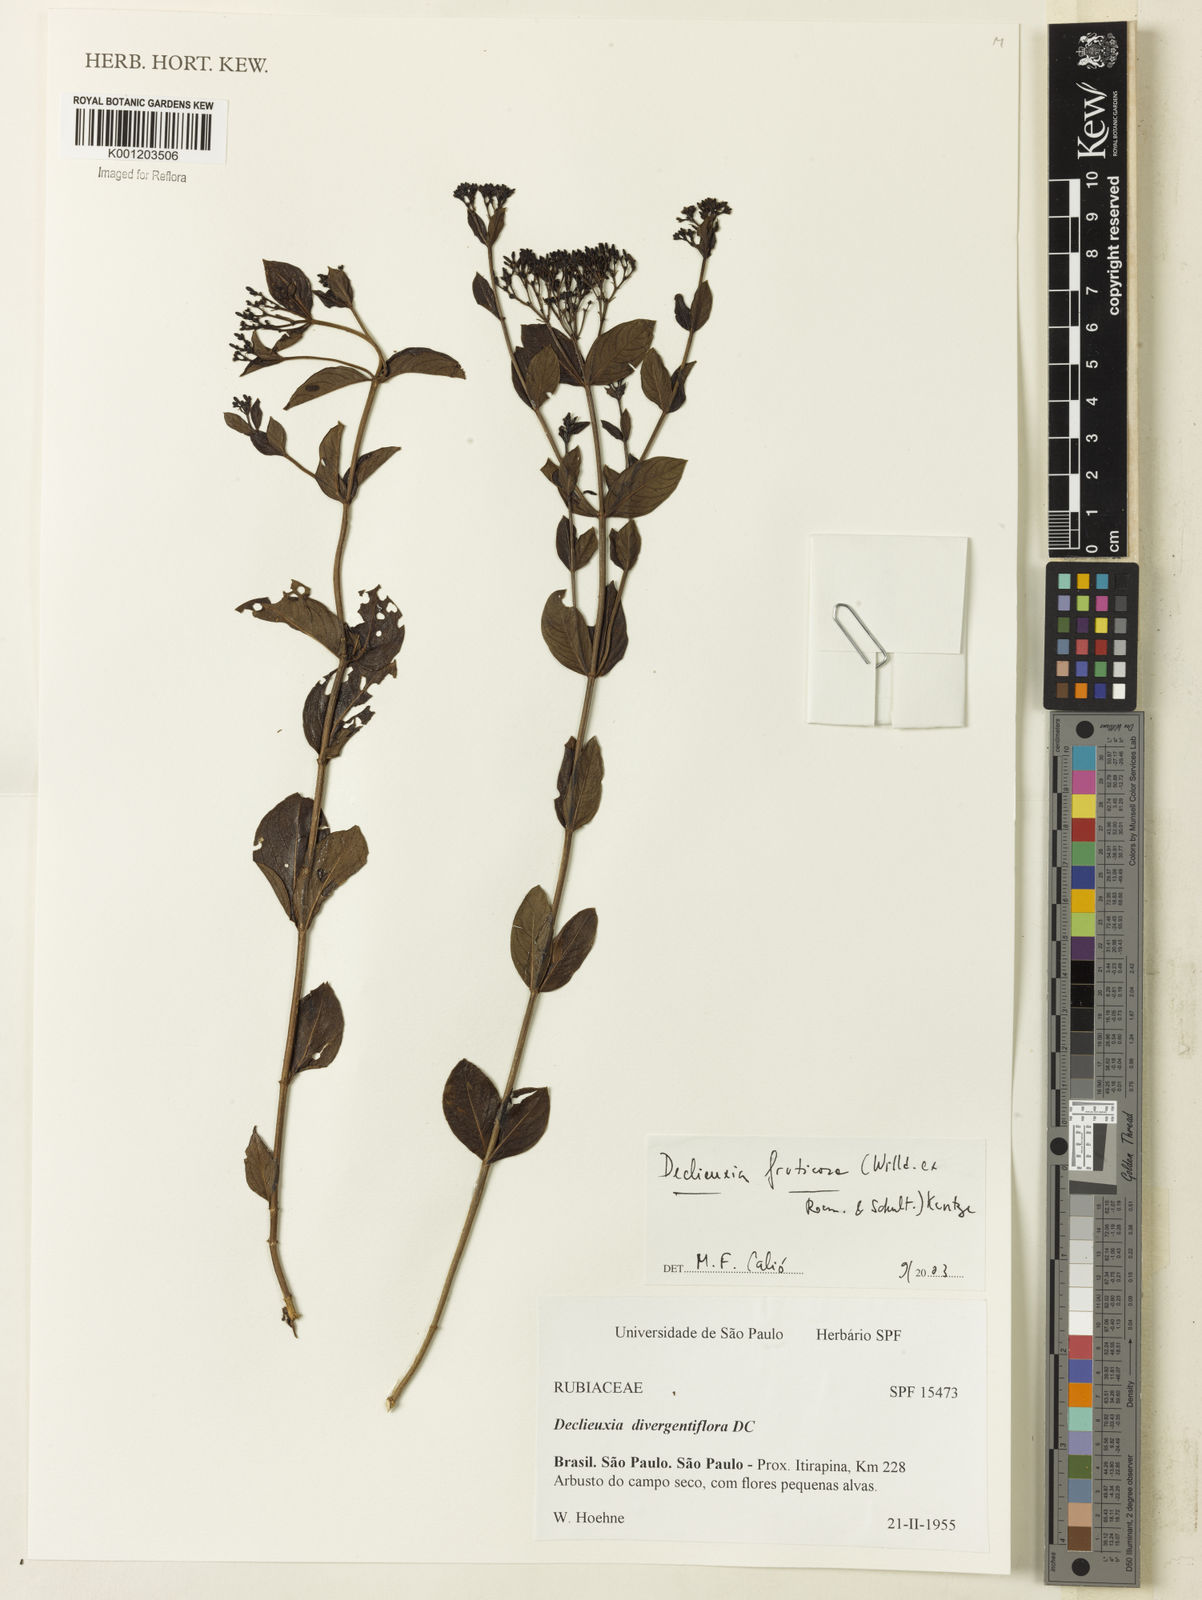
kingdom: Plantae
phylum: Tracheophyta
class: Magnoliopsida
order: Gentianales
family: Rubiaceae
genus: Declieuxia
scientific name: Declieuxia fruticosa
